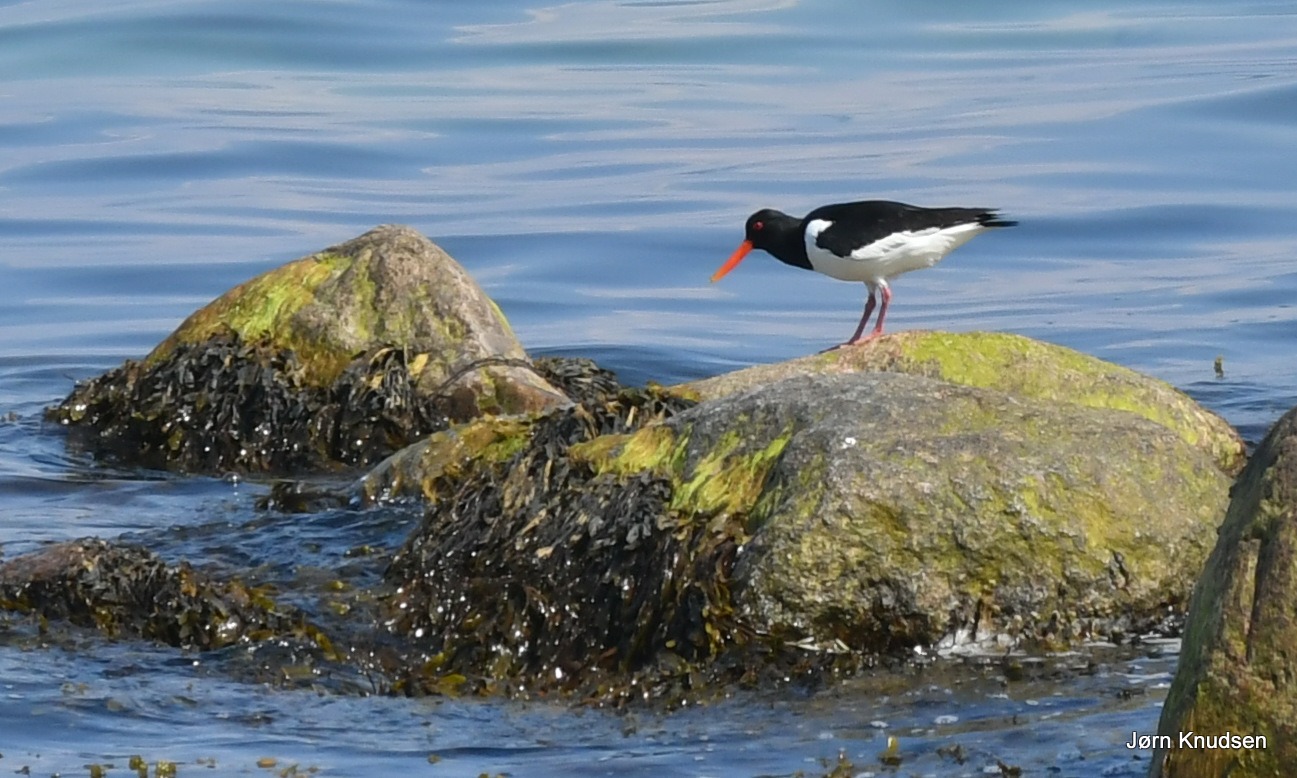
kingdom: Animalia
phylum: Chordata
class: Aves
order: Charadriiformes
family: Haematopodidae
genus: Haematopus
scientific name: Haematopus ostralegus
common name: Strandskade
